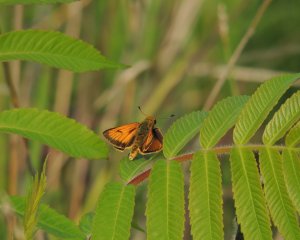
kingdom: Animalia
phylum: Arthropoda
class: Insecta
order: Lepidoptera
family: Hesperiidae
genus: Atrytone
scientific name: Atrytone delaware
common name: Delaware Skipper
